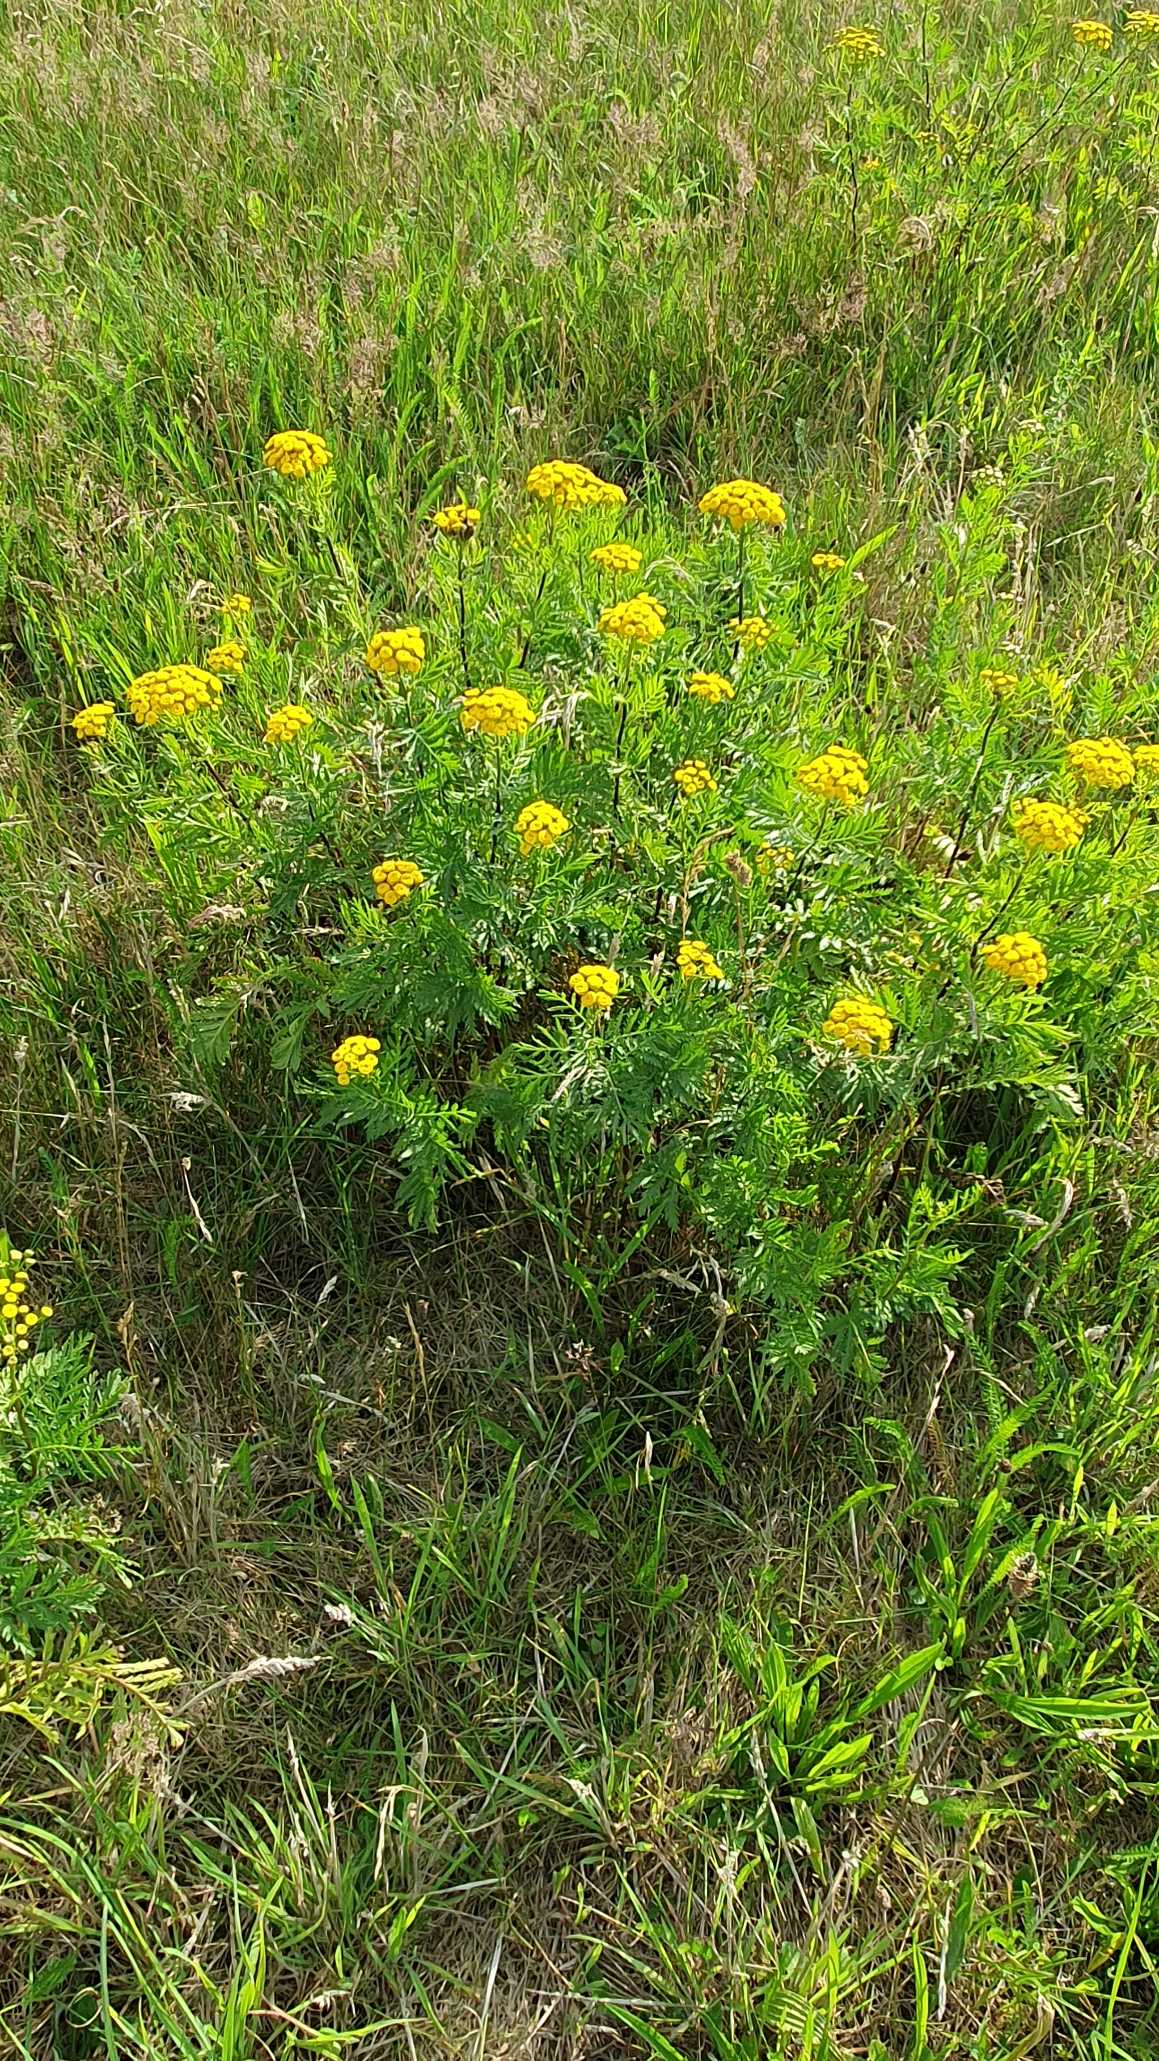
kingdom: Plantae
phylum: Tracheophyta
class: Magnoliopsida
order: Asterales
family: Asteraceae
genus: Tanacetum
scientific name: Tanacetum vulgare
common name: Rejnfan
